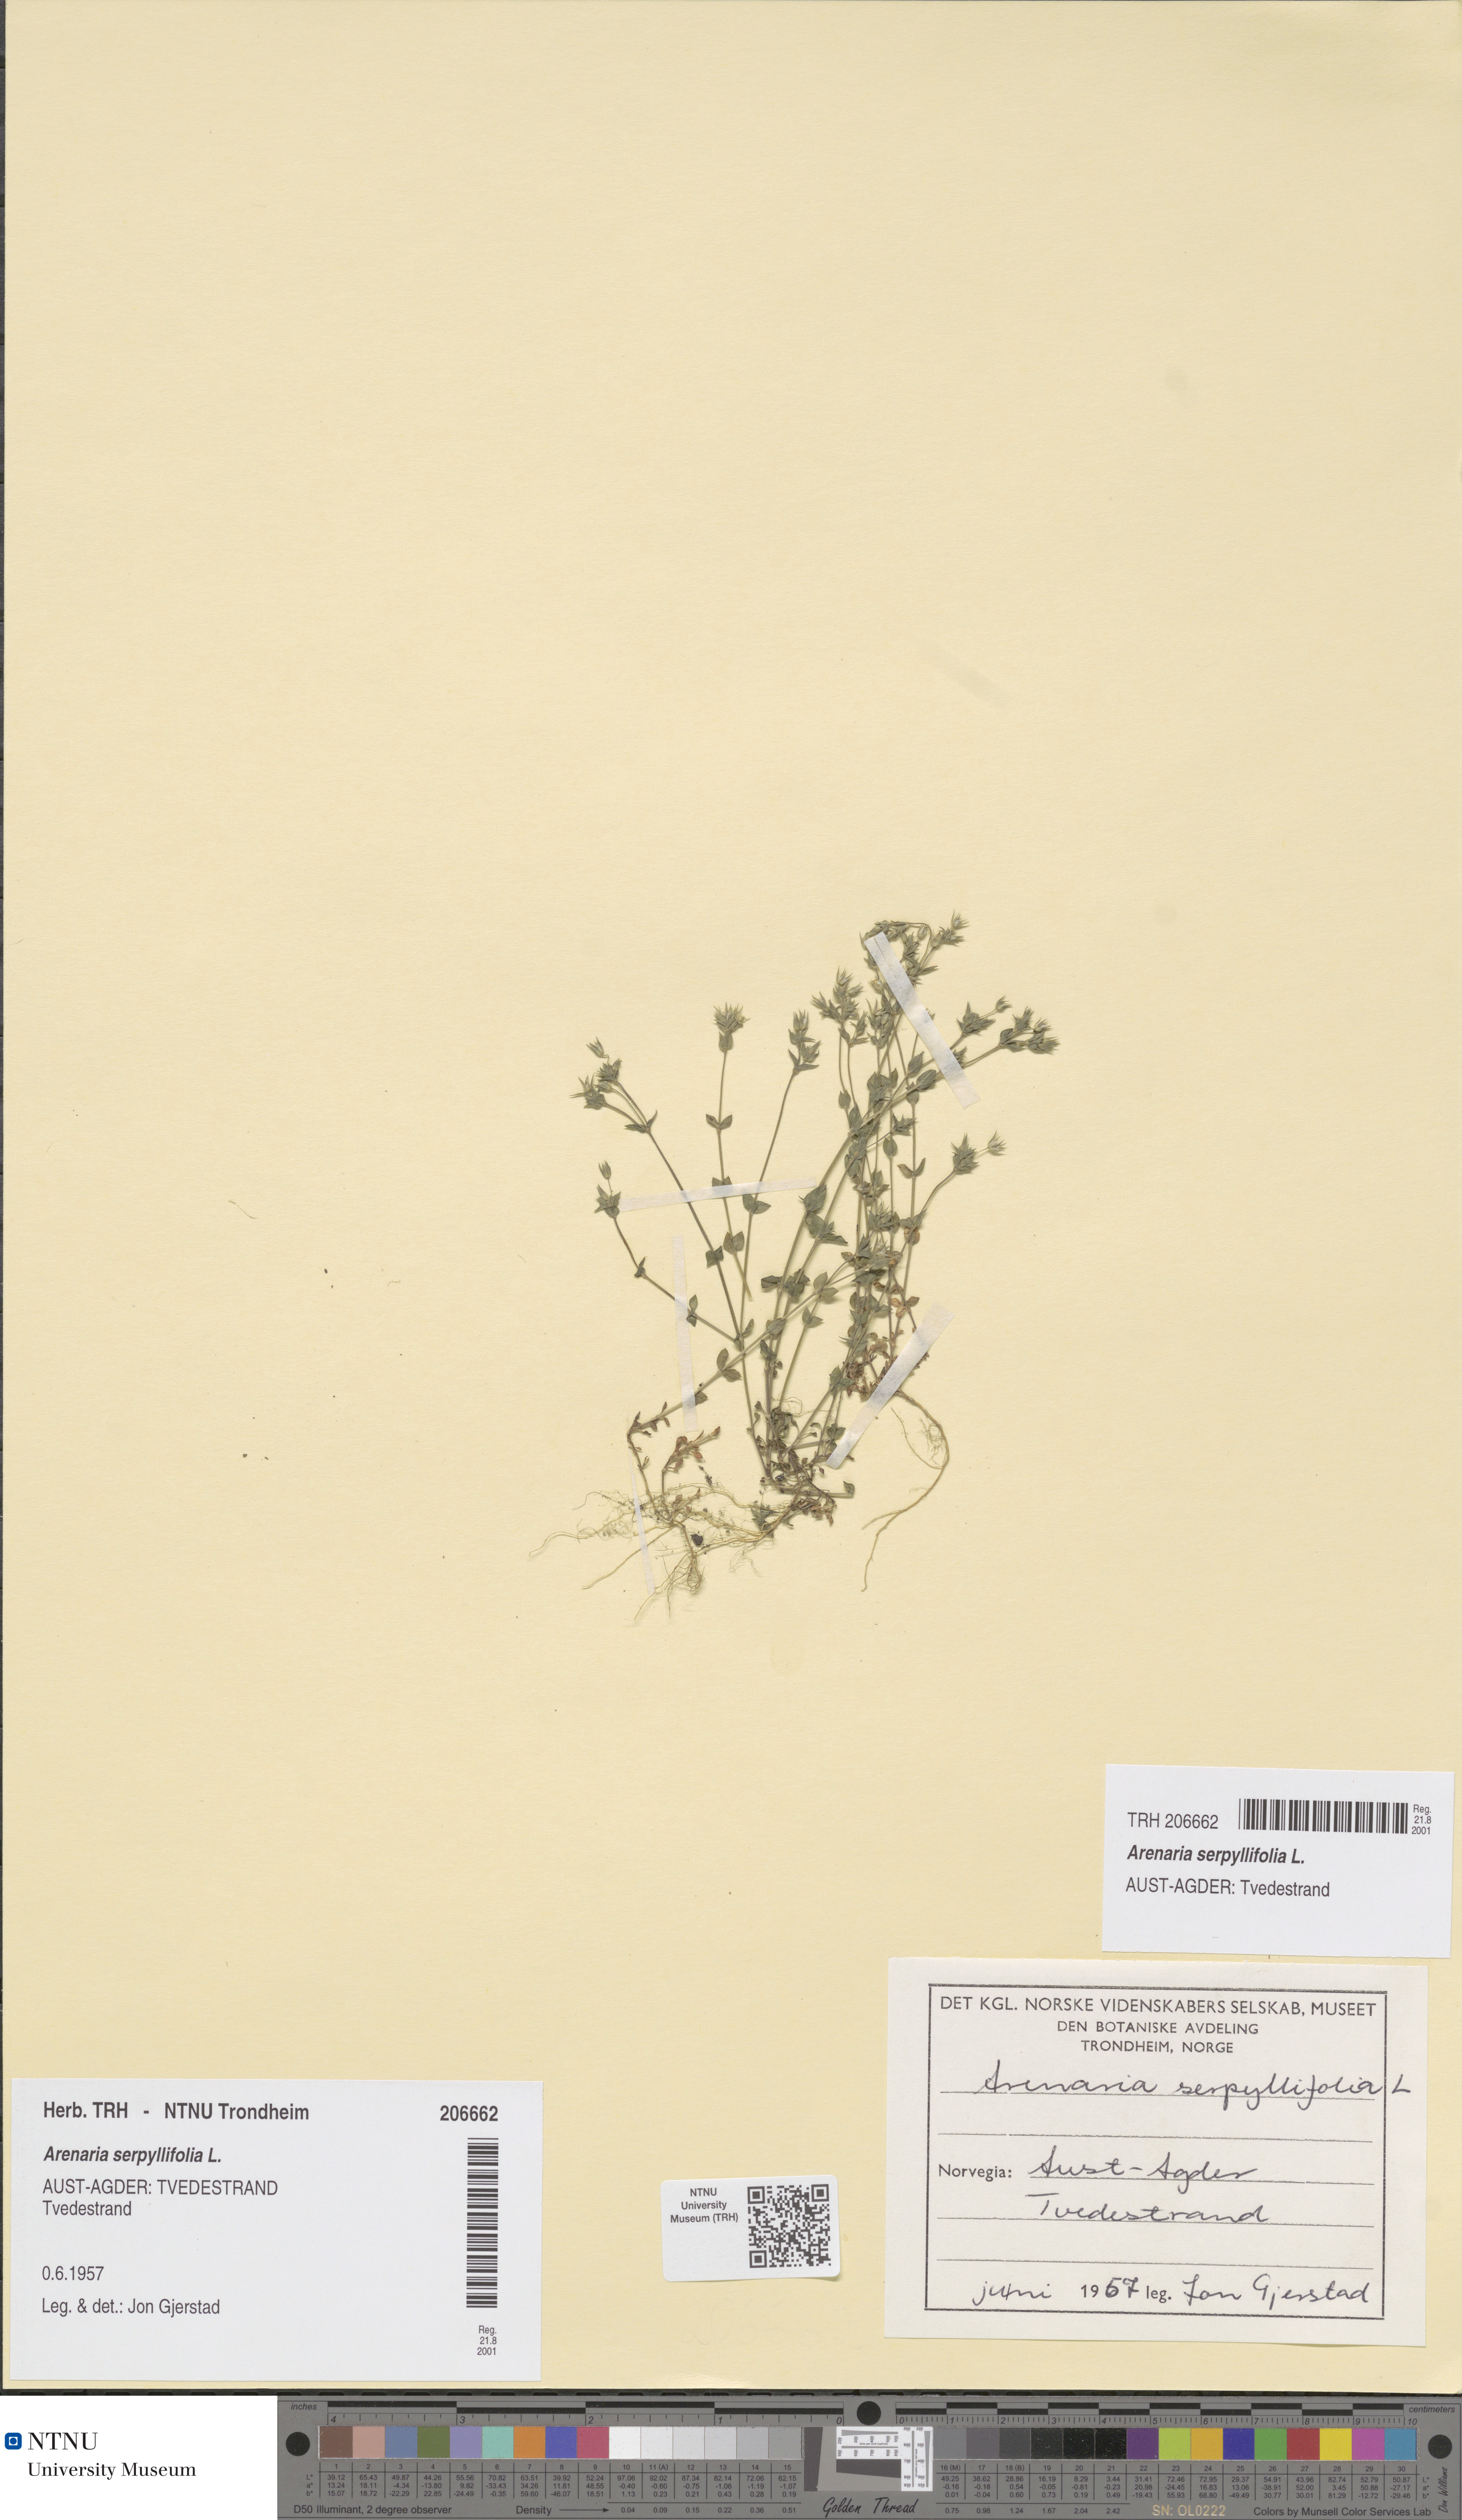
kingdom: Plantae
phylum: Tracheophyta
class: Magnoliopsida
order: Caryophyllales
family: Caryophyllaceae
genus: Arenaria
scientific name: Arenaria serpyllifolia
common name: Thyme-leaved sandwort
